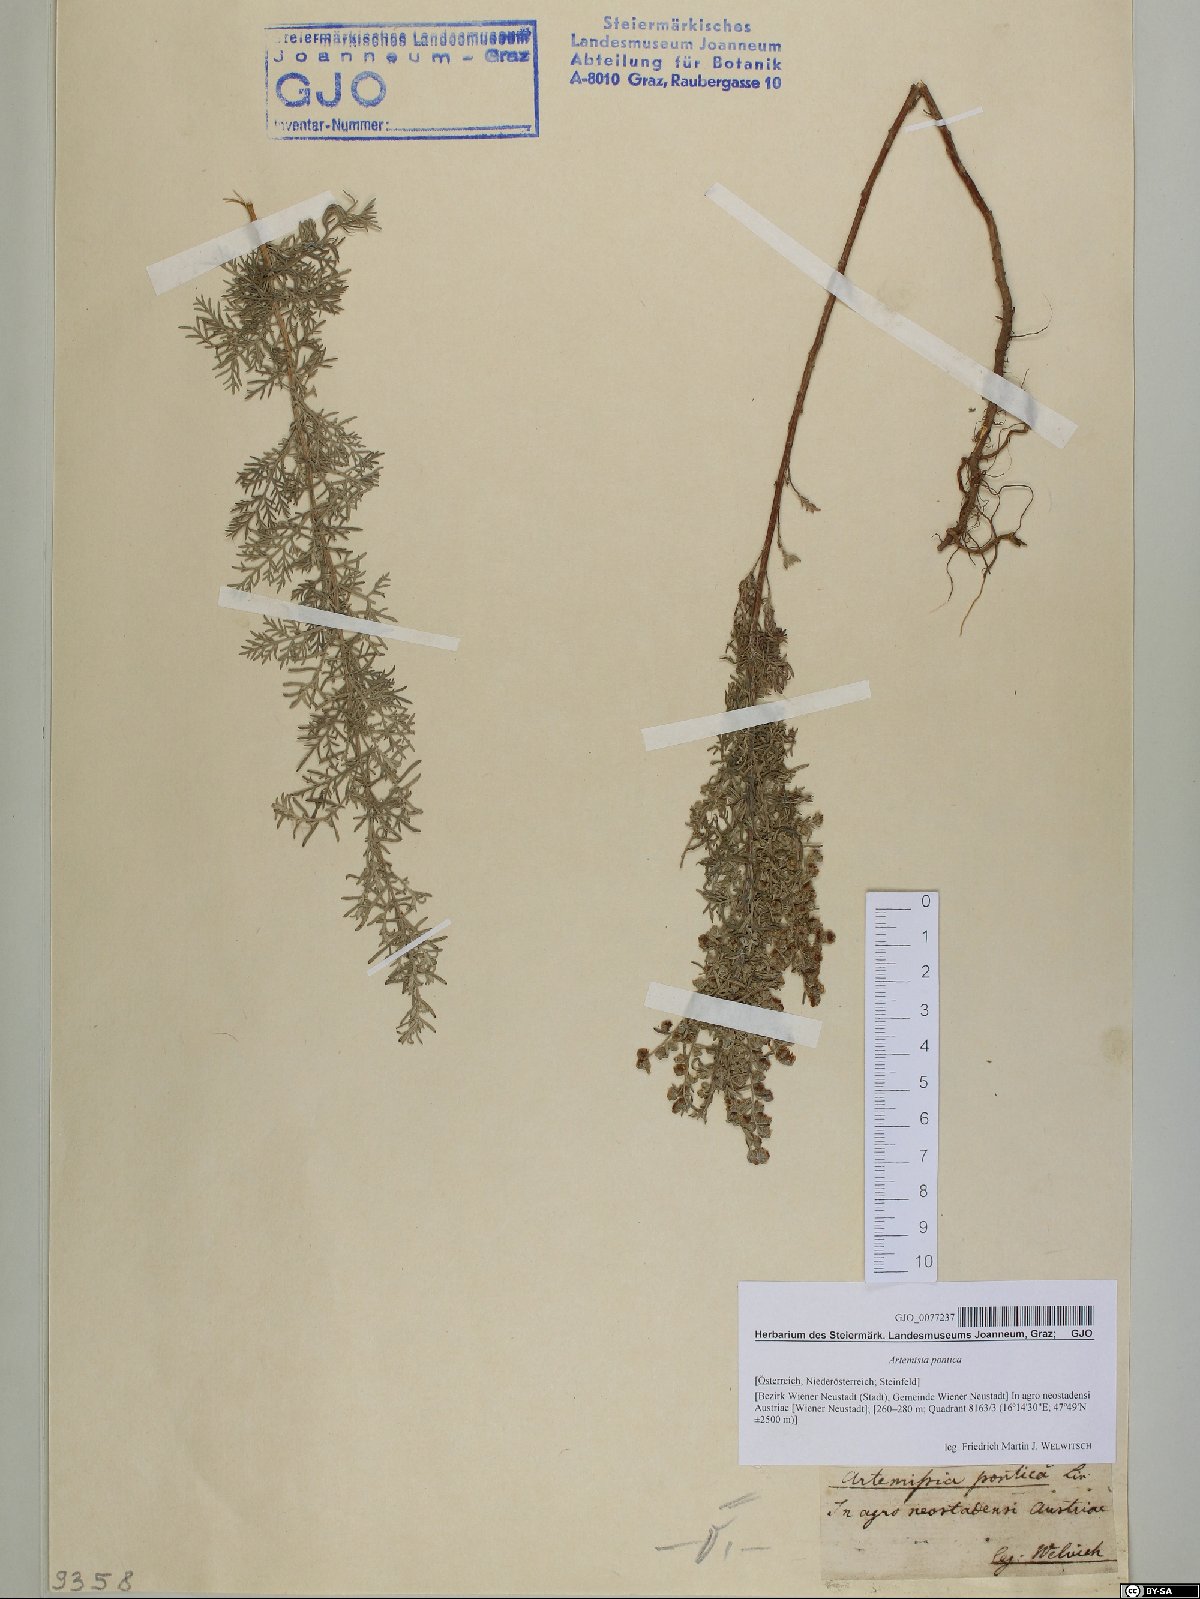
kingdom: Plantae
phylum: Tracheophyta
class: Magnoliopsida
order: Asterales
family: Asteraceae
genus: Artemisia
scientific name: Artemisia pontica
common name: Roman wormwood
